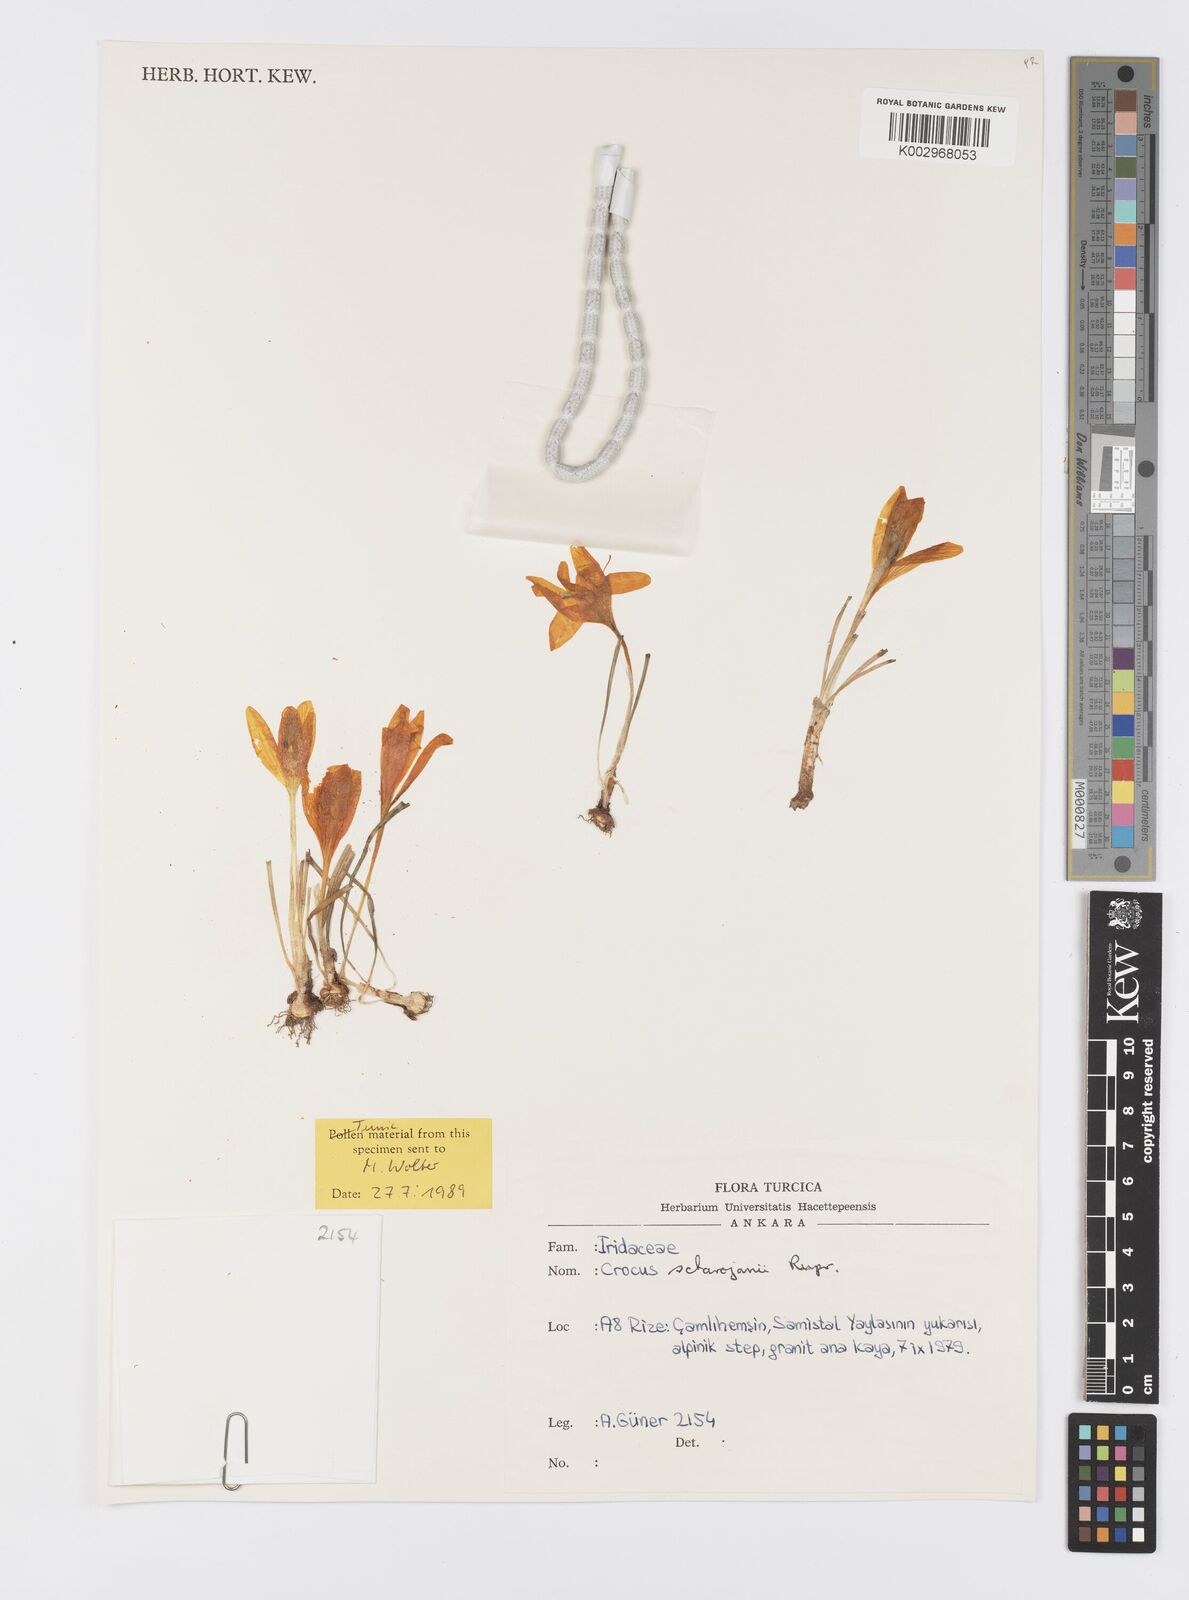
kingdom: Plantae
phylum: Tracheophyta
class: Liliopsida
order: Asparagales
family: Iridaceae
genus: Crocus
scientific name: Crocus lazicus
